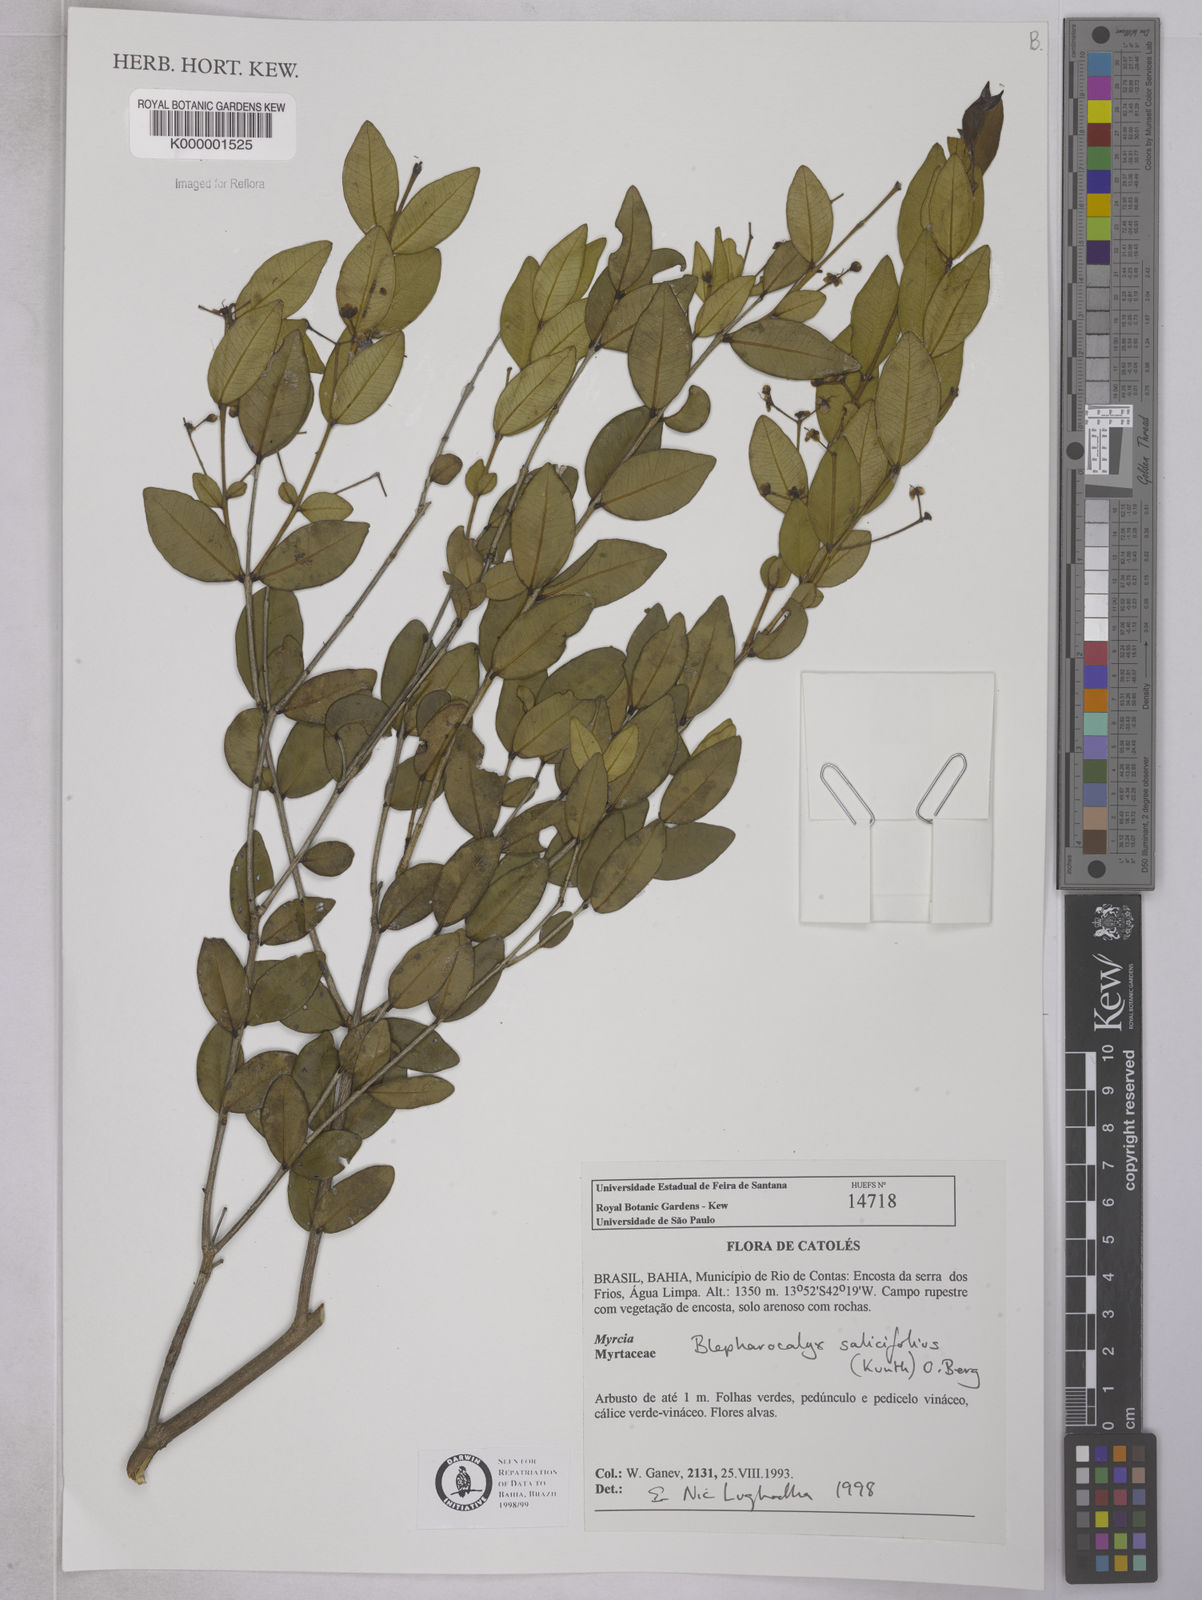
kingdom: Plantae
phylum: Tracheophyta
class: Magnoliopsida
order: Myrtales
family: Myrtaceae
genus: Blepharocalyx
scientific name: Blepharocalyx salicifolius
